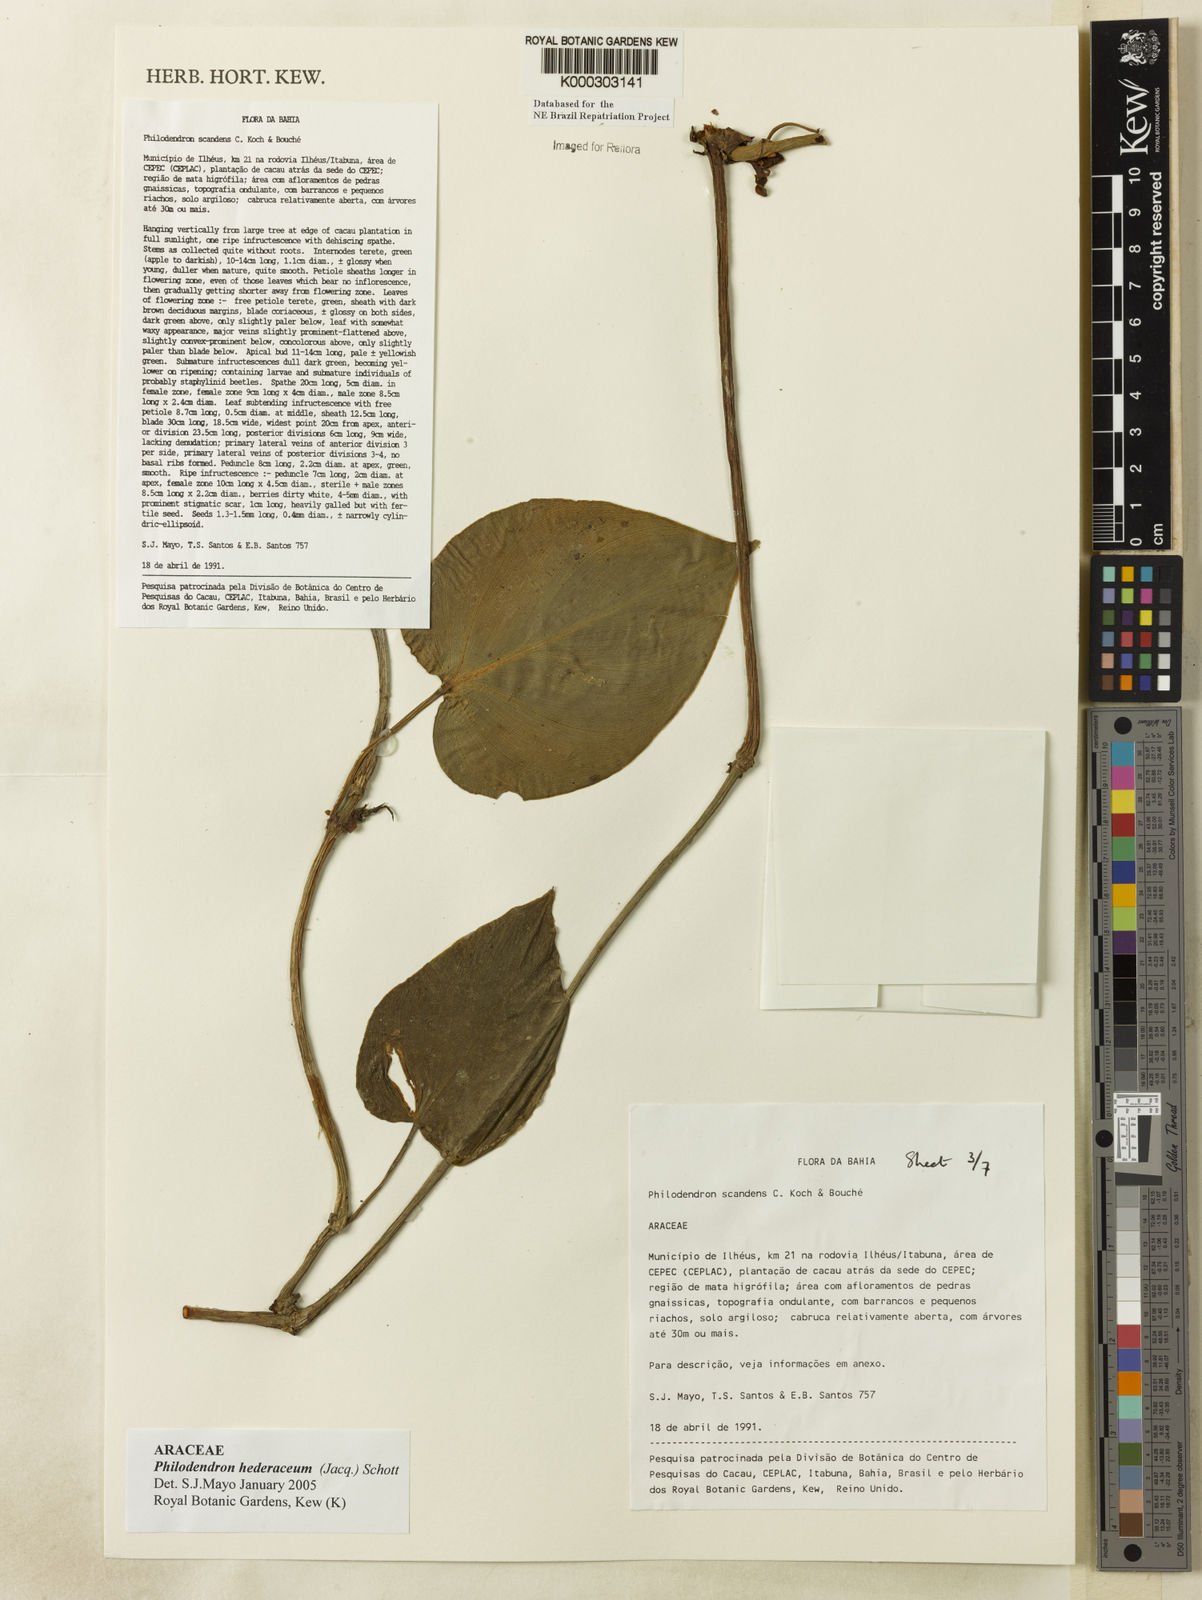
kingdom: Plantae
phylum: Tracheophyta
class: Liliopsida
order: Alismatales
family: Araceae
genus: Philodendron
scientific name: Philodendron hederaceum
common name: Vilevine
